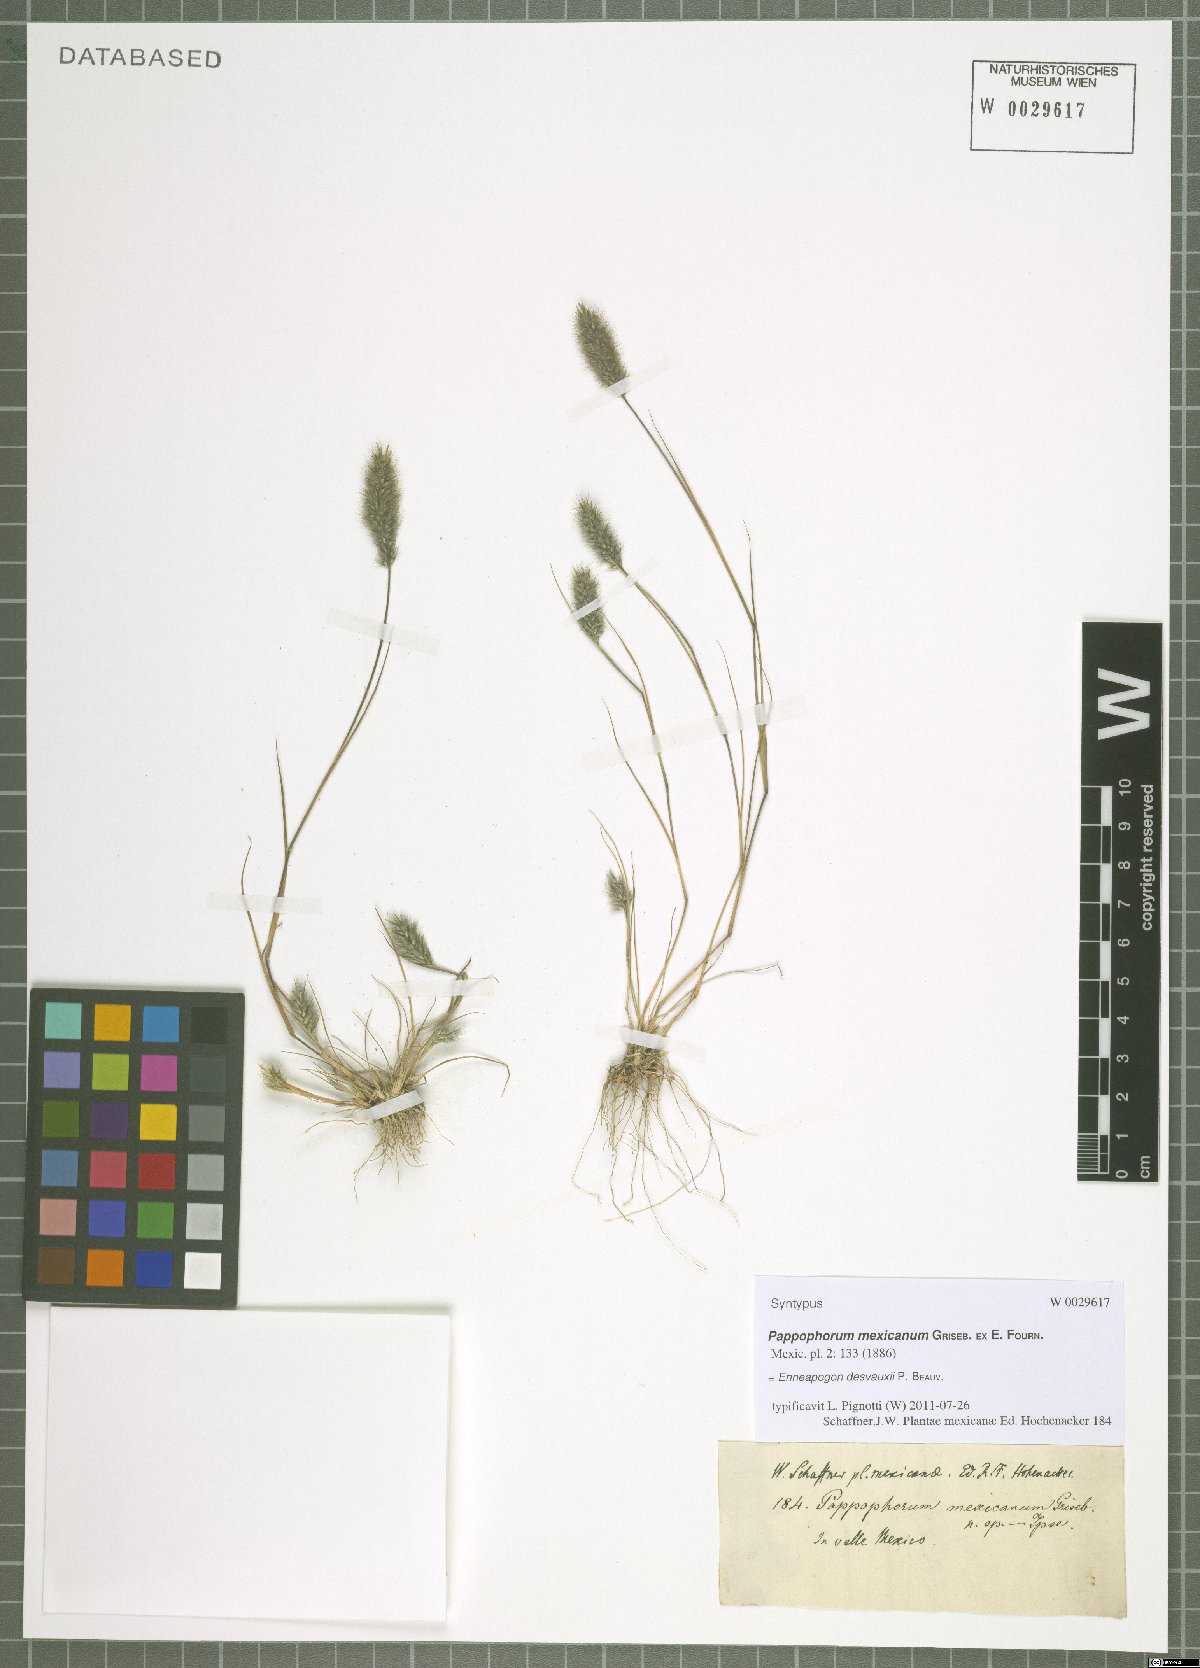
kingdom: Plantae
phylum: Tracheophyta
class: Liliopsida
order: Poales
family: Poaceae
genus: Enneapogon
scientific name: Enneapogon desvauxii
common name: Feather pappus grass
